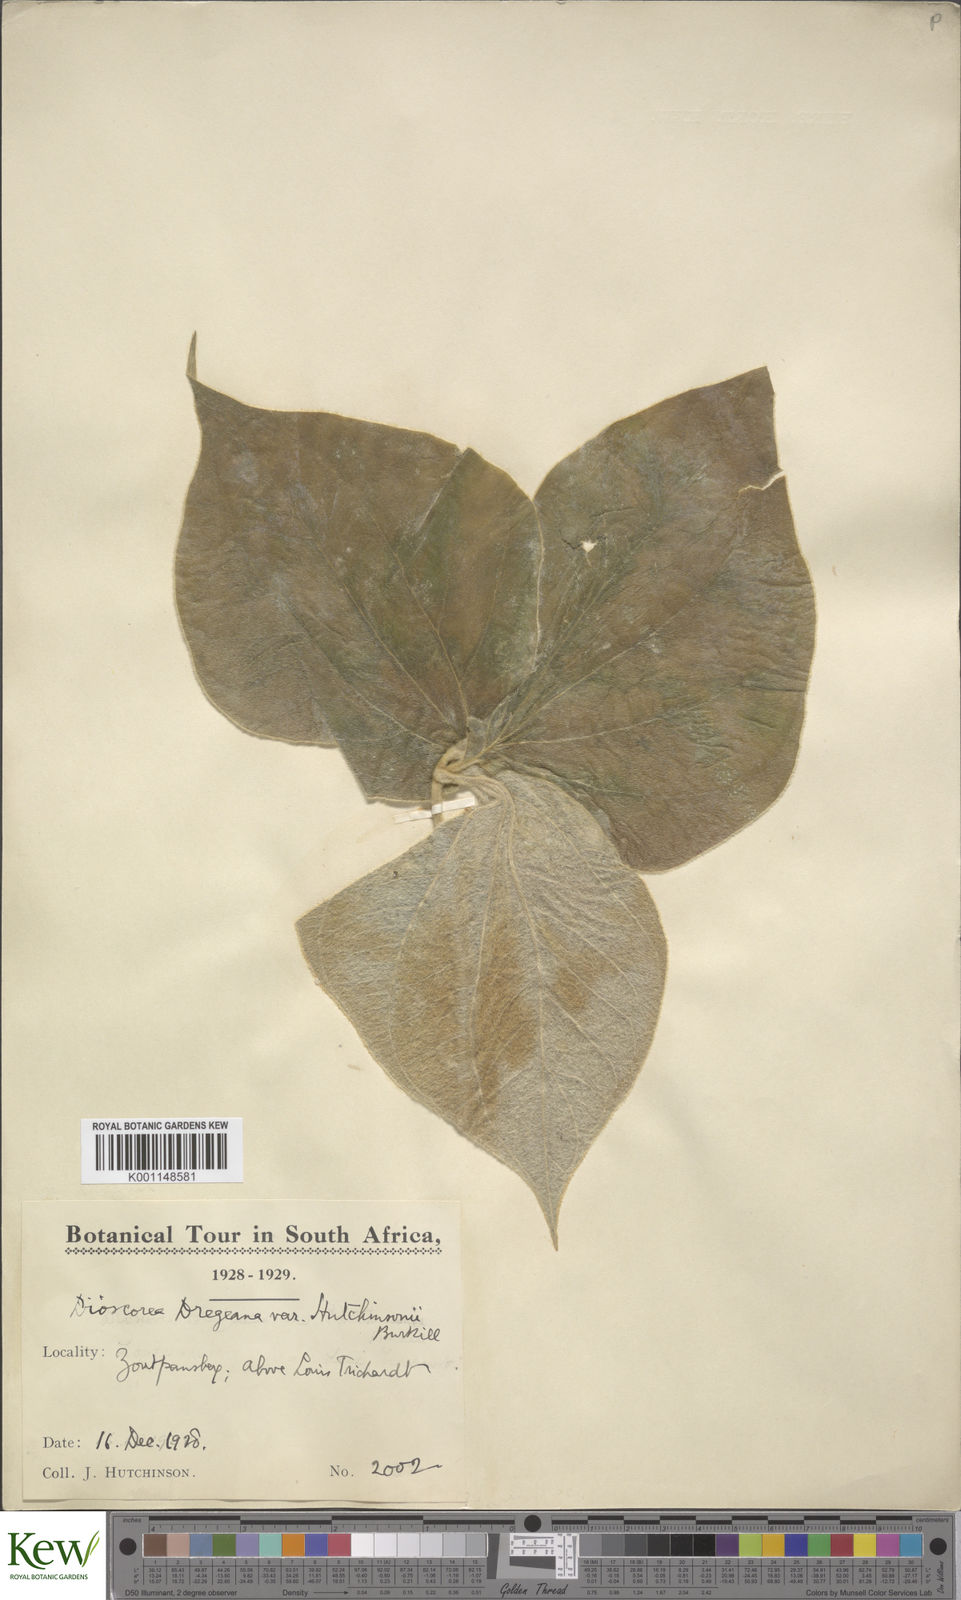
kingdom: Plantae
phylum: Tracheophyta
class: Liliopsida
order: Dioscoreales
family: Dioscoreaceae
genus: Dioscorea
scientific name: Dioscorea dregeana
